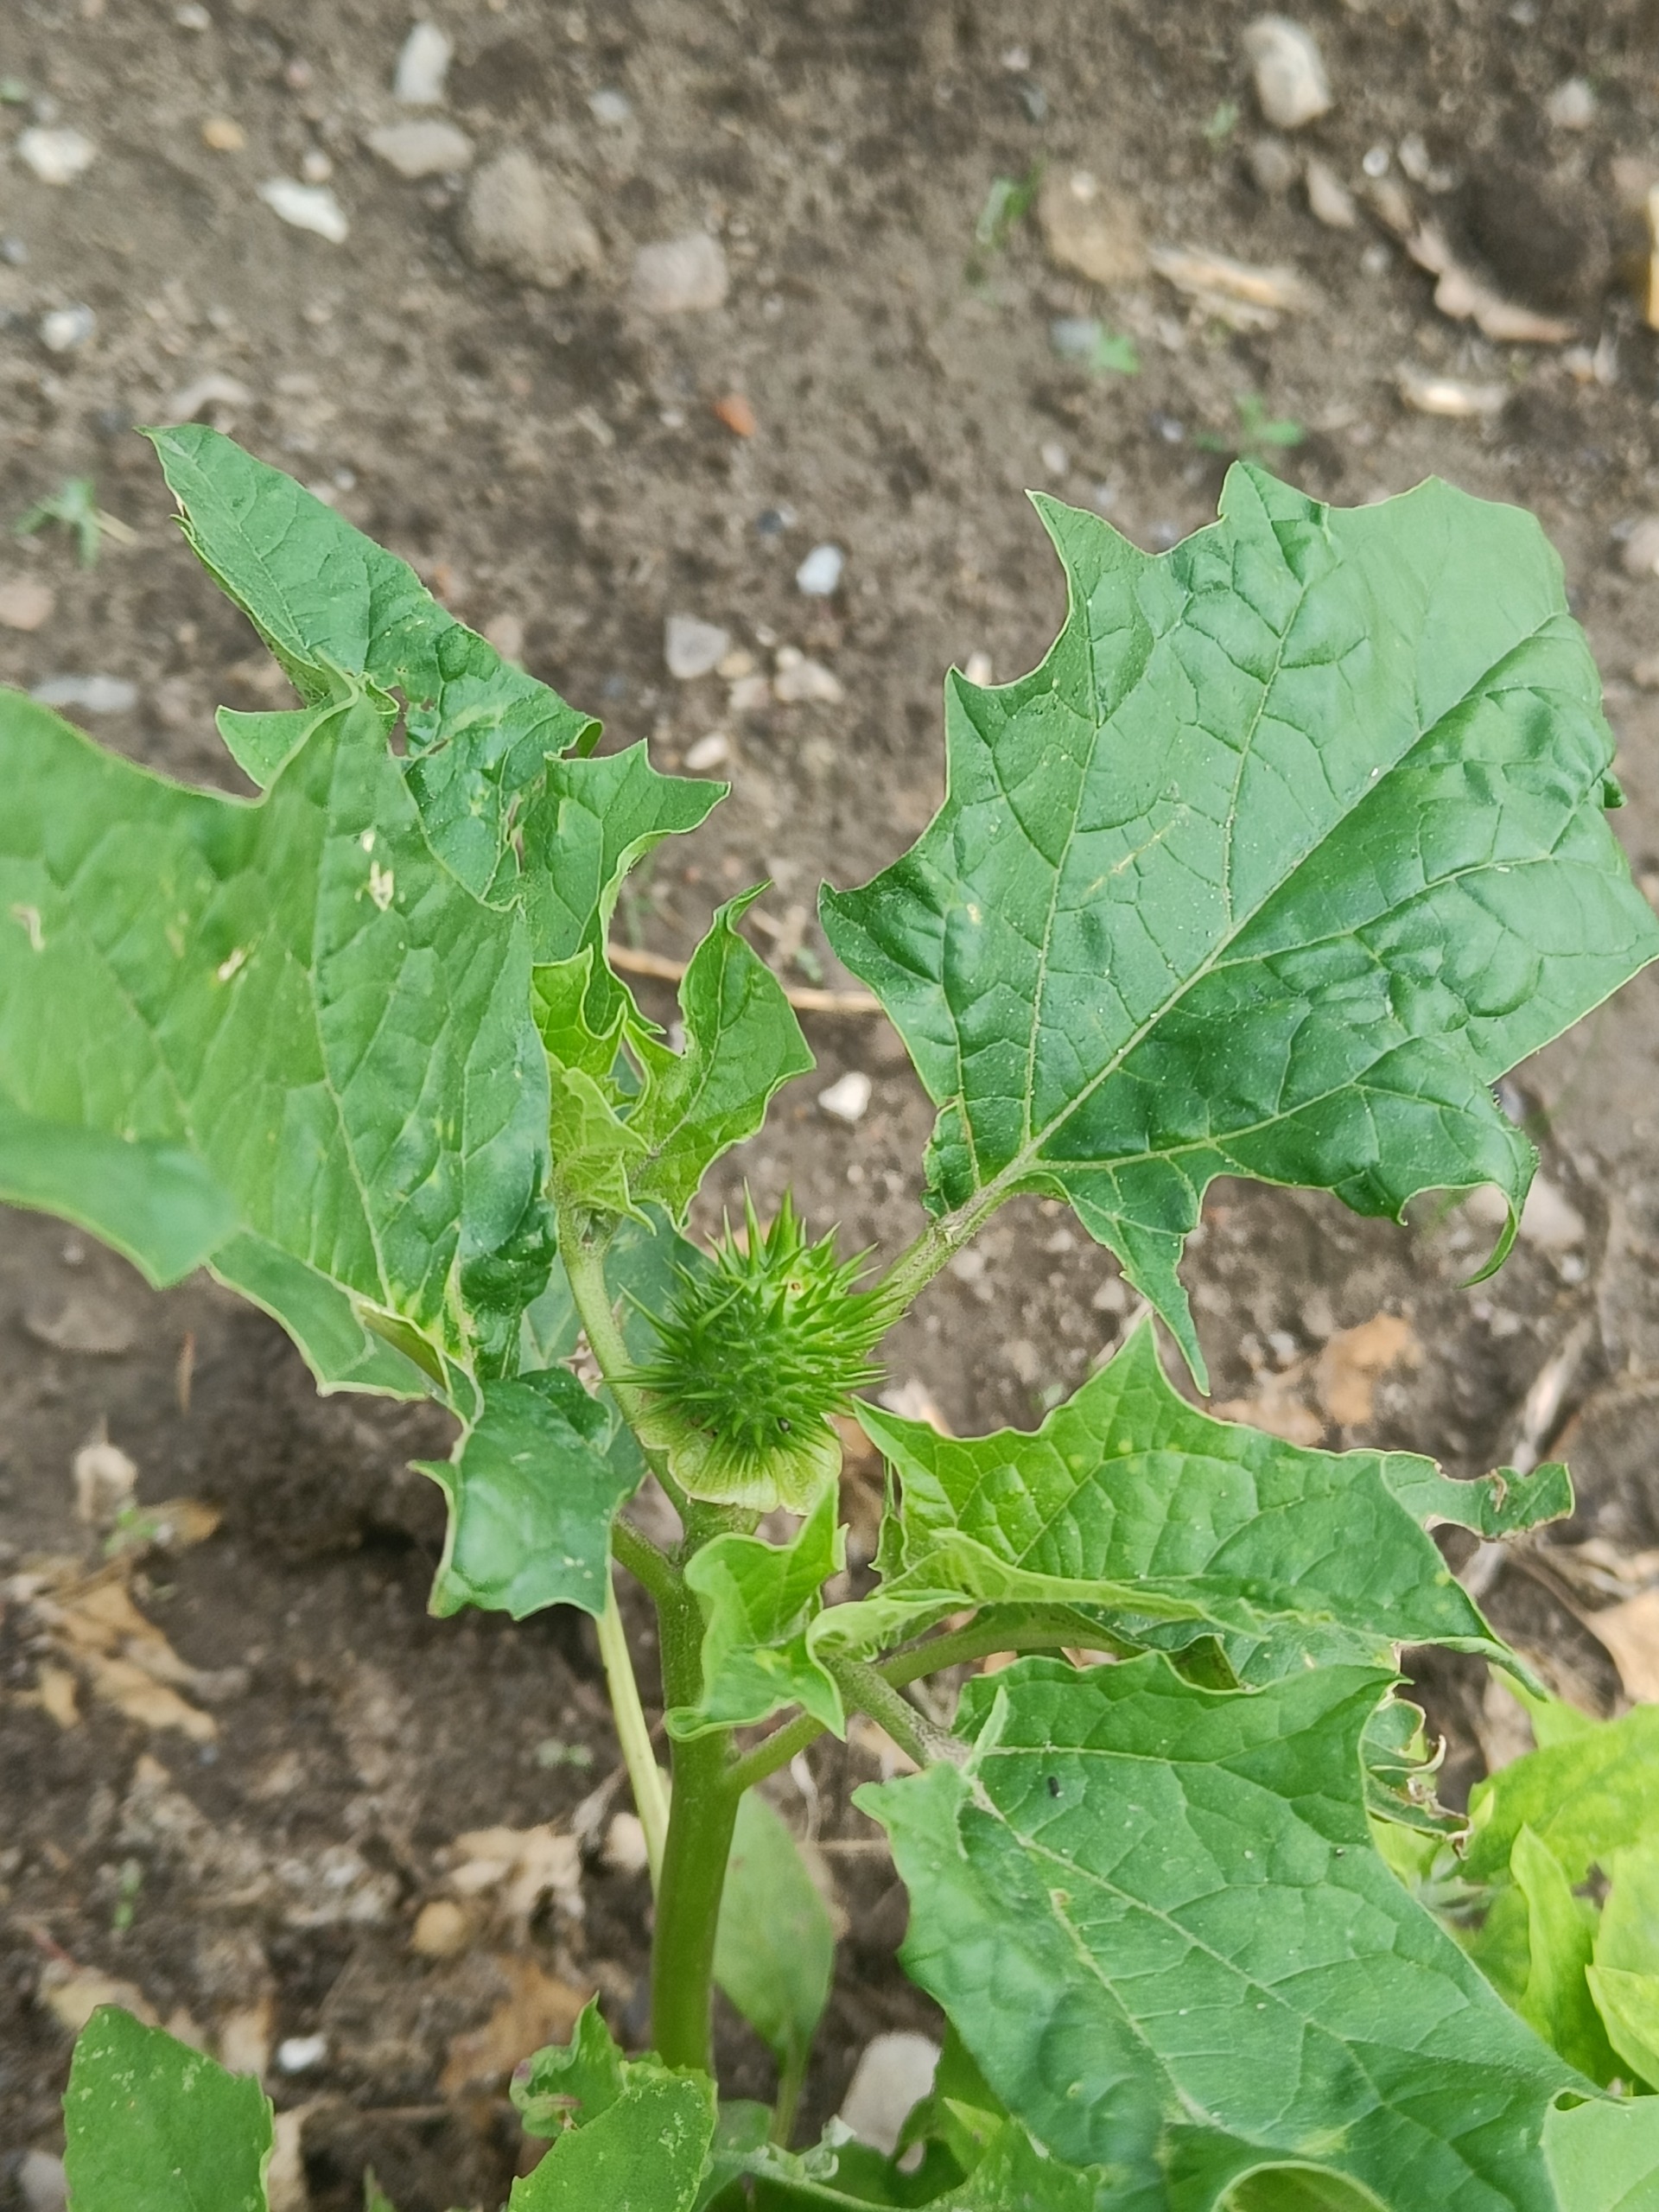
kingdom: Plantae
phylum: Tracheophyta
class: Magnoliopsida
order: Solanales
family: Solanaceae
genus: Datura
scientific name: Datura stramonium
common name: Pigæble
